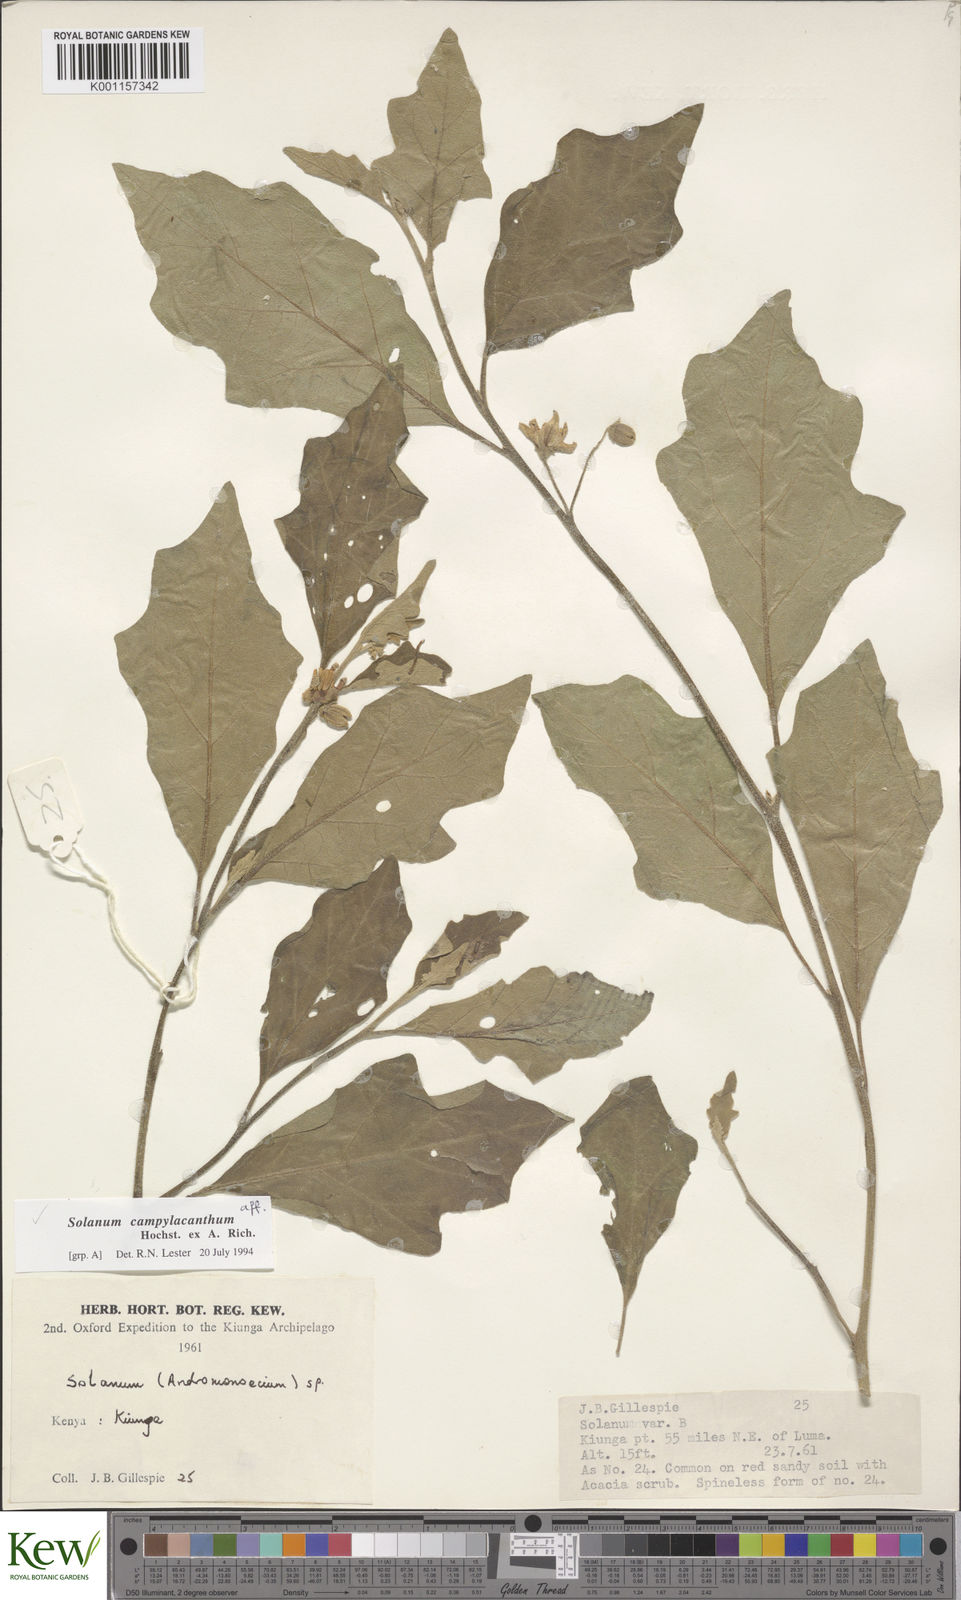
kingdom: Plantae
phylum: Tracheophyta
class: Magnoliopsida
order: Solanales
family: Solanaceae
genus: Solanum
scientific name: Solanum campylacanthum
